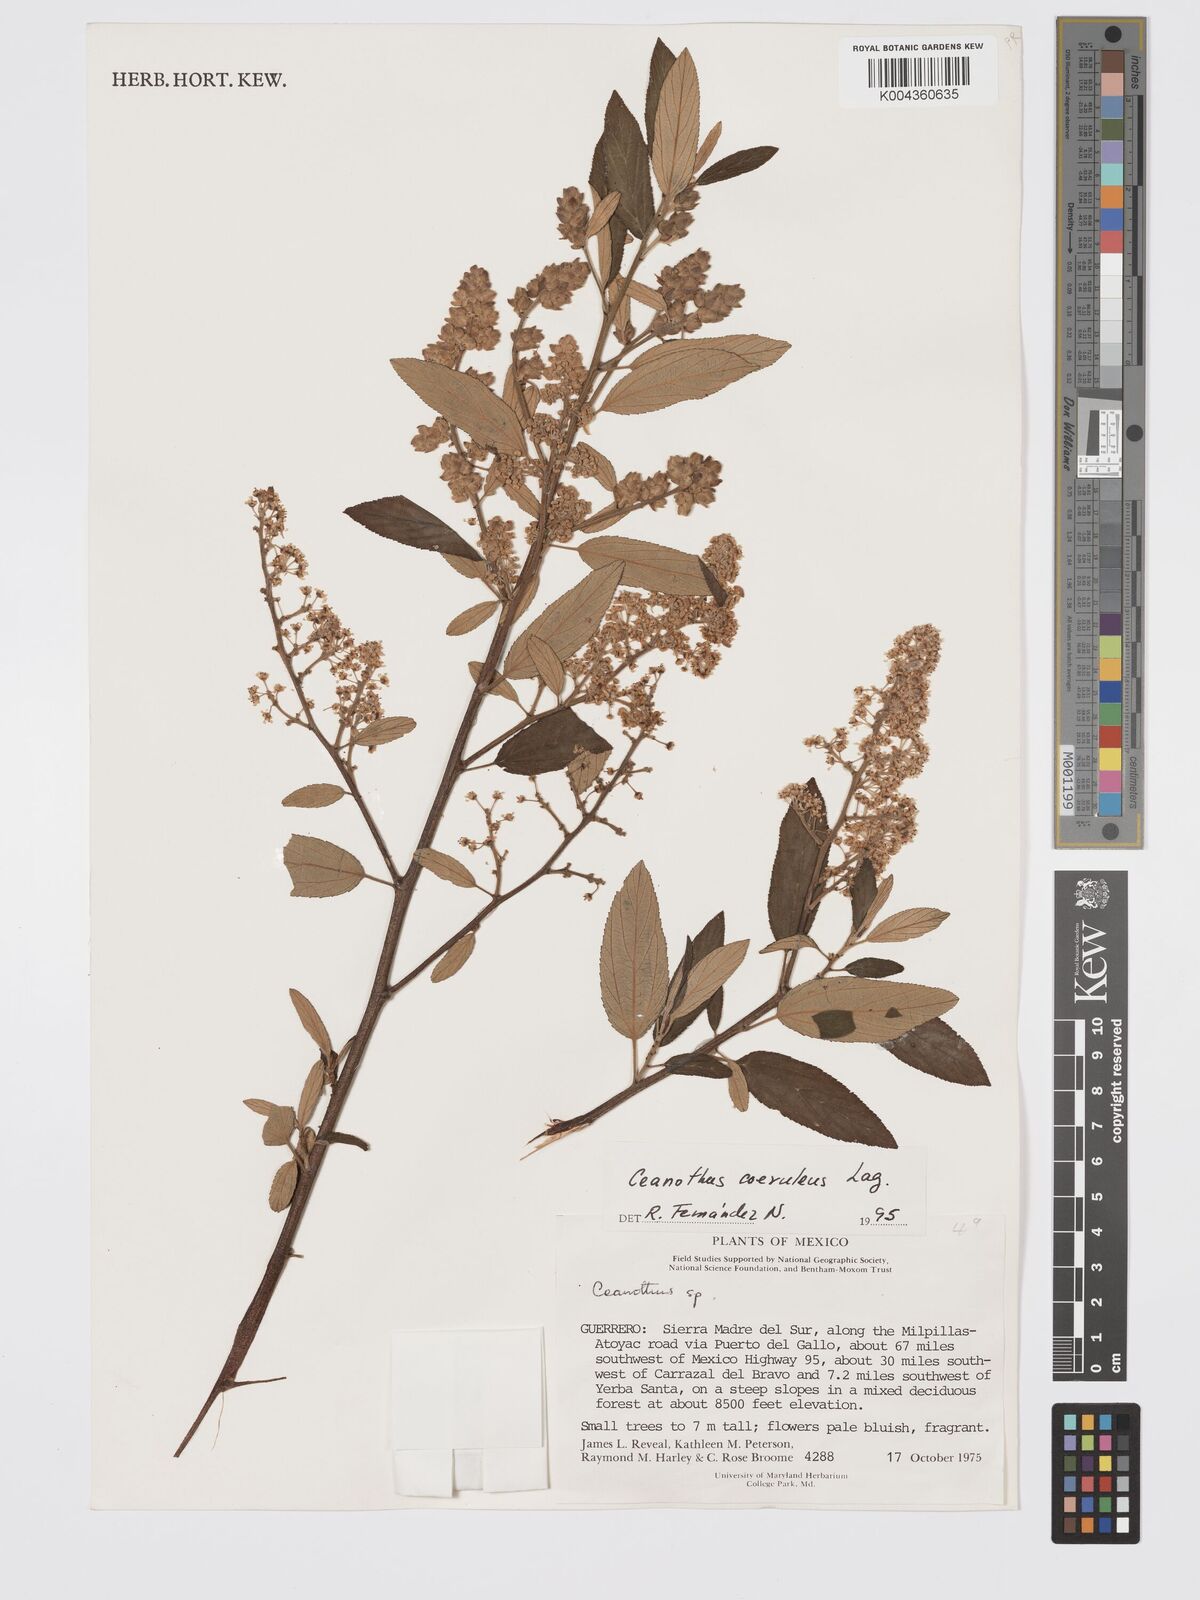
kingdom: Plantae
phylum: Tracheophyta
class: Magnoliopsida
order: Rosales
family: Rhamnaceae
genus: Ceanothus
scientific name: Ceanothus caeruleus
